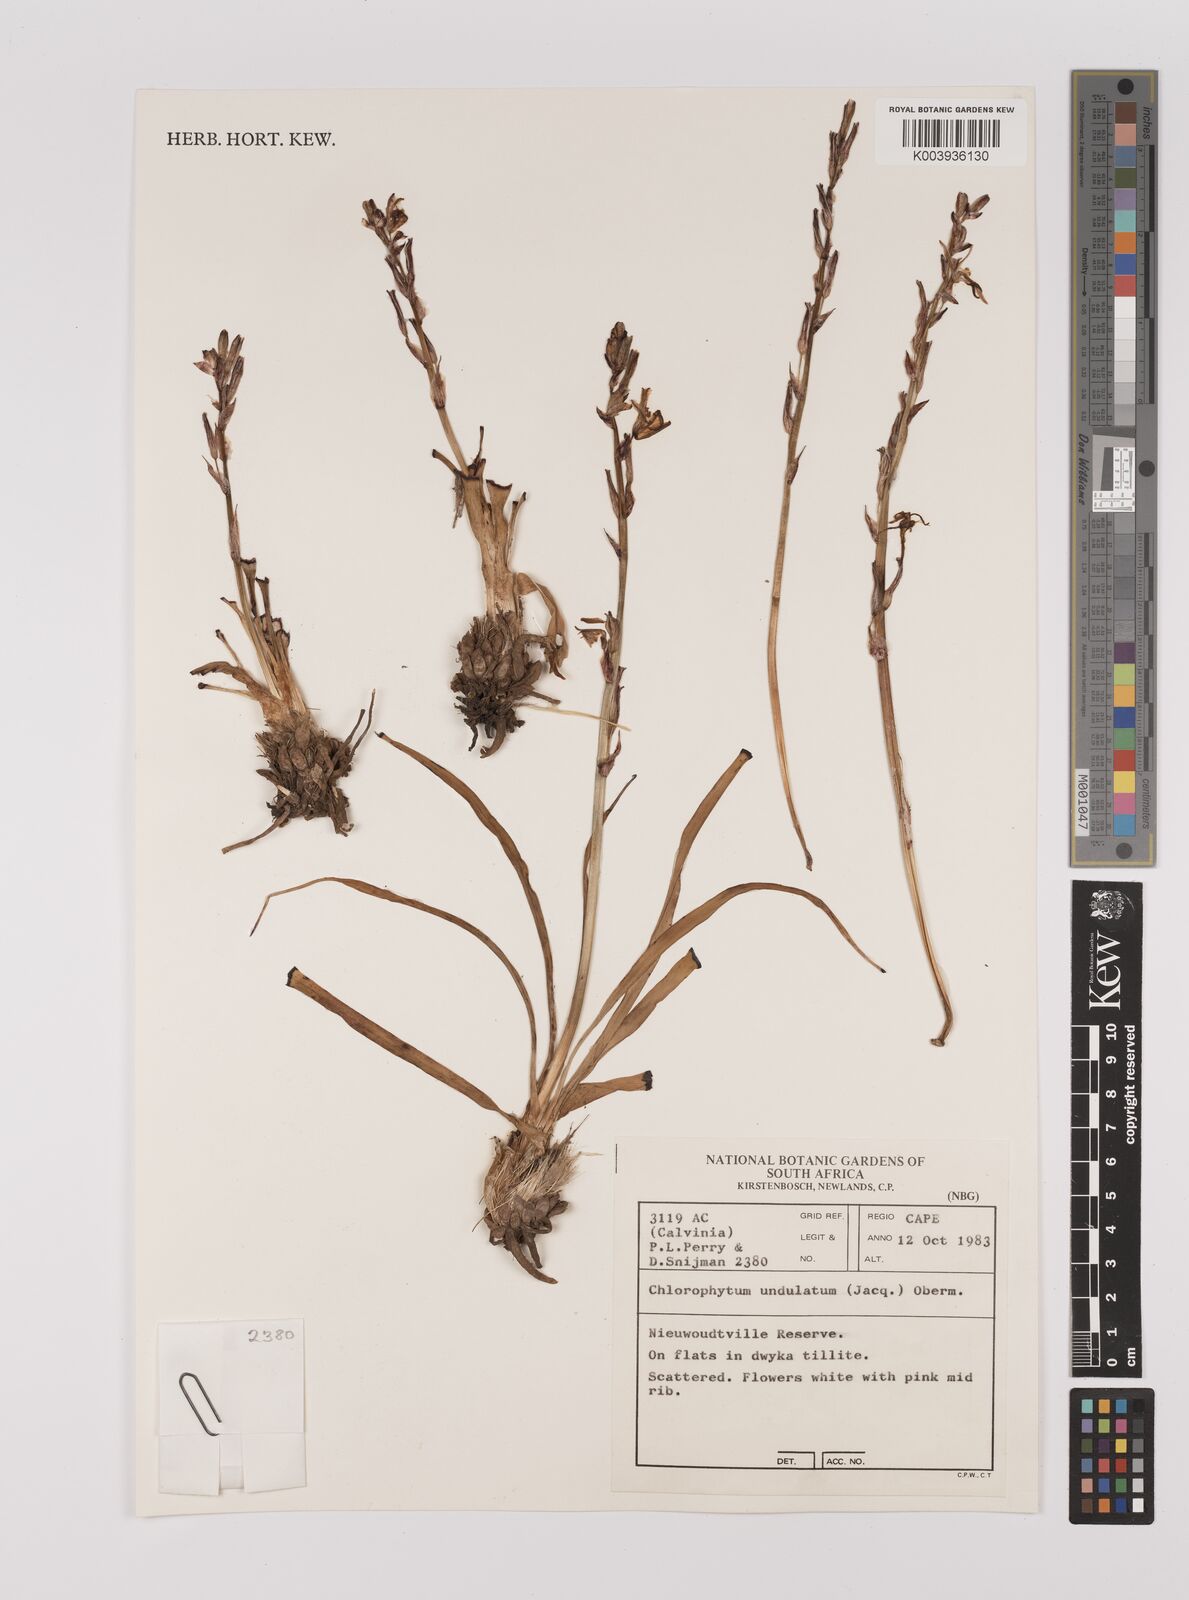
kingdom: Plantae
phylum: Tracheophyta
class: Liliopsida
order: Asparagales
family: Asparagaceae
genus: Chlorophytum
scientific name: Chlorophytum graminifolium
